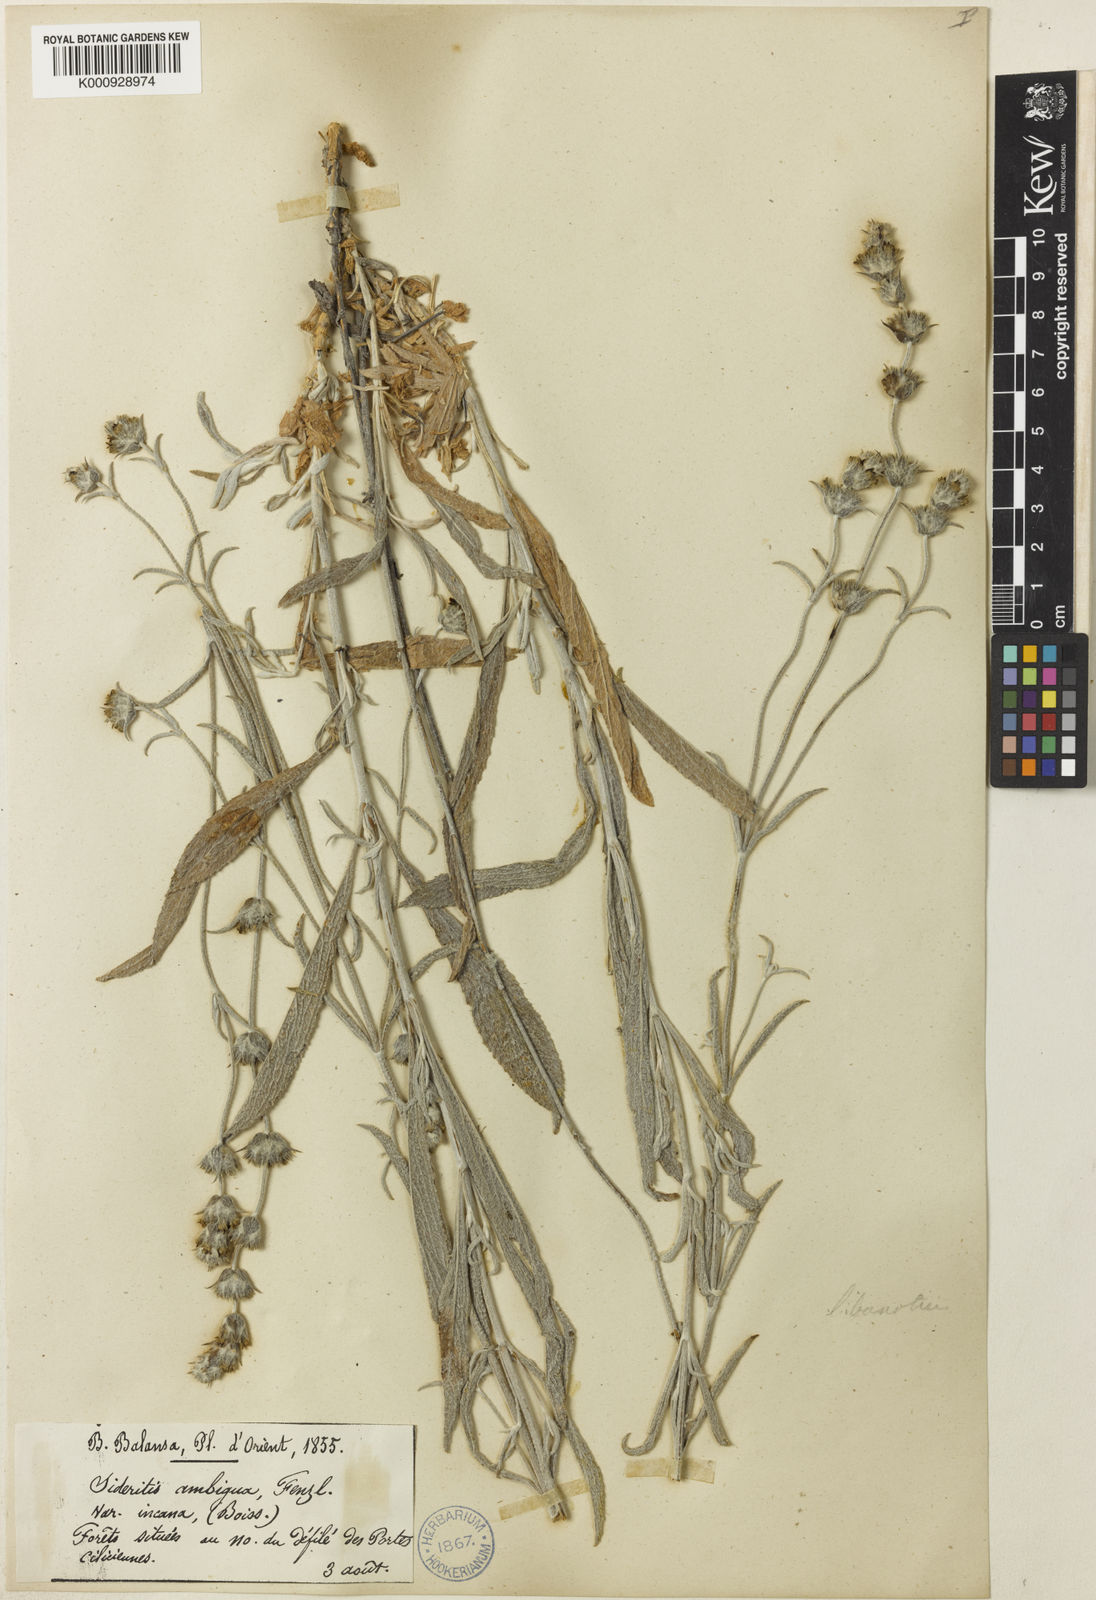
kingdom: Plantae
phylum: Tracheophyta
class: Magnoliopsida
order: Lamiales
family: Lamiaceae
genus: Sideritis
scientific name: Sideritis pisidica
